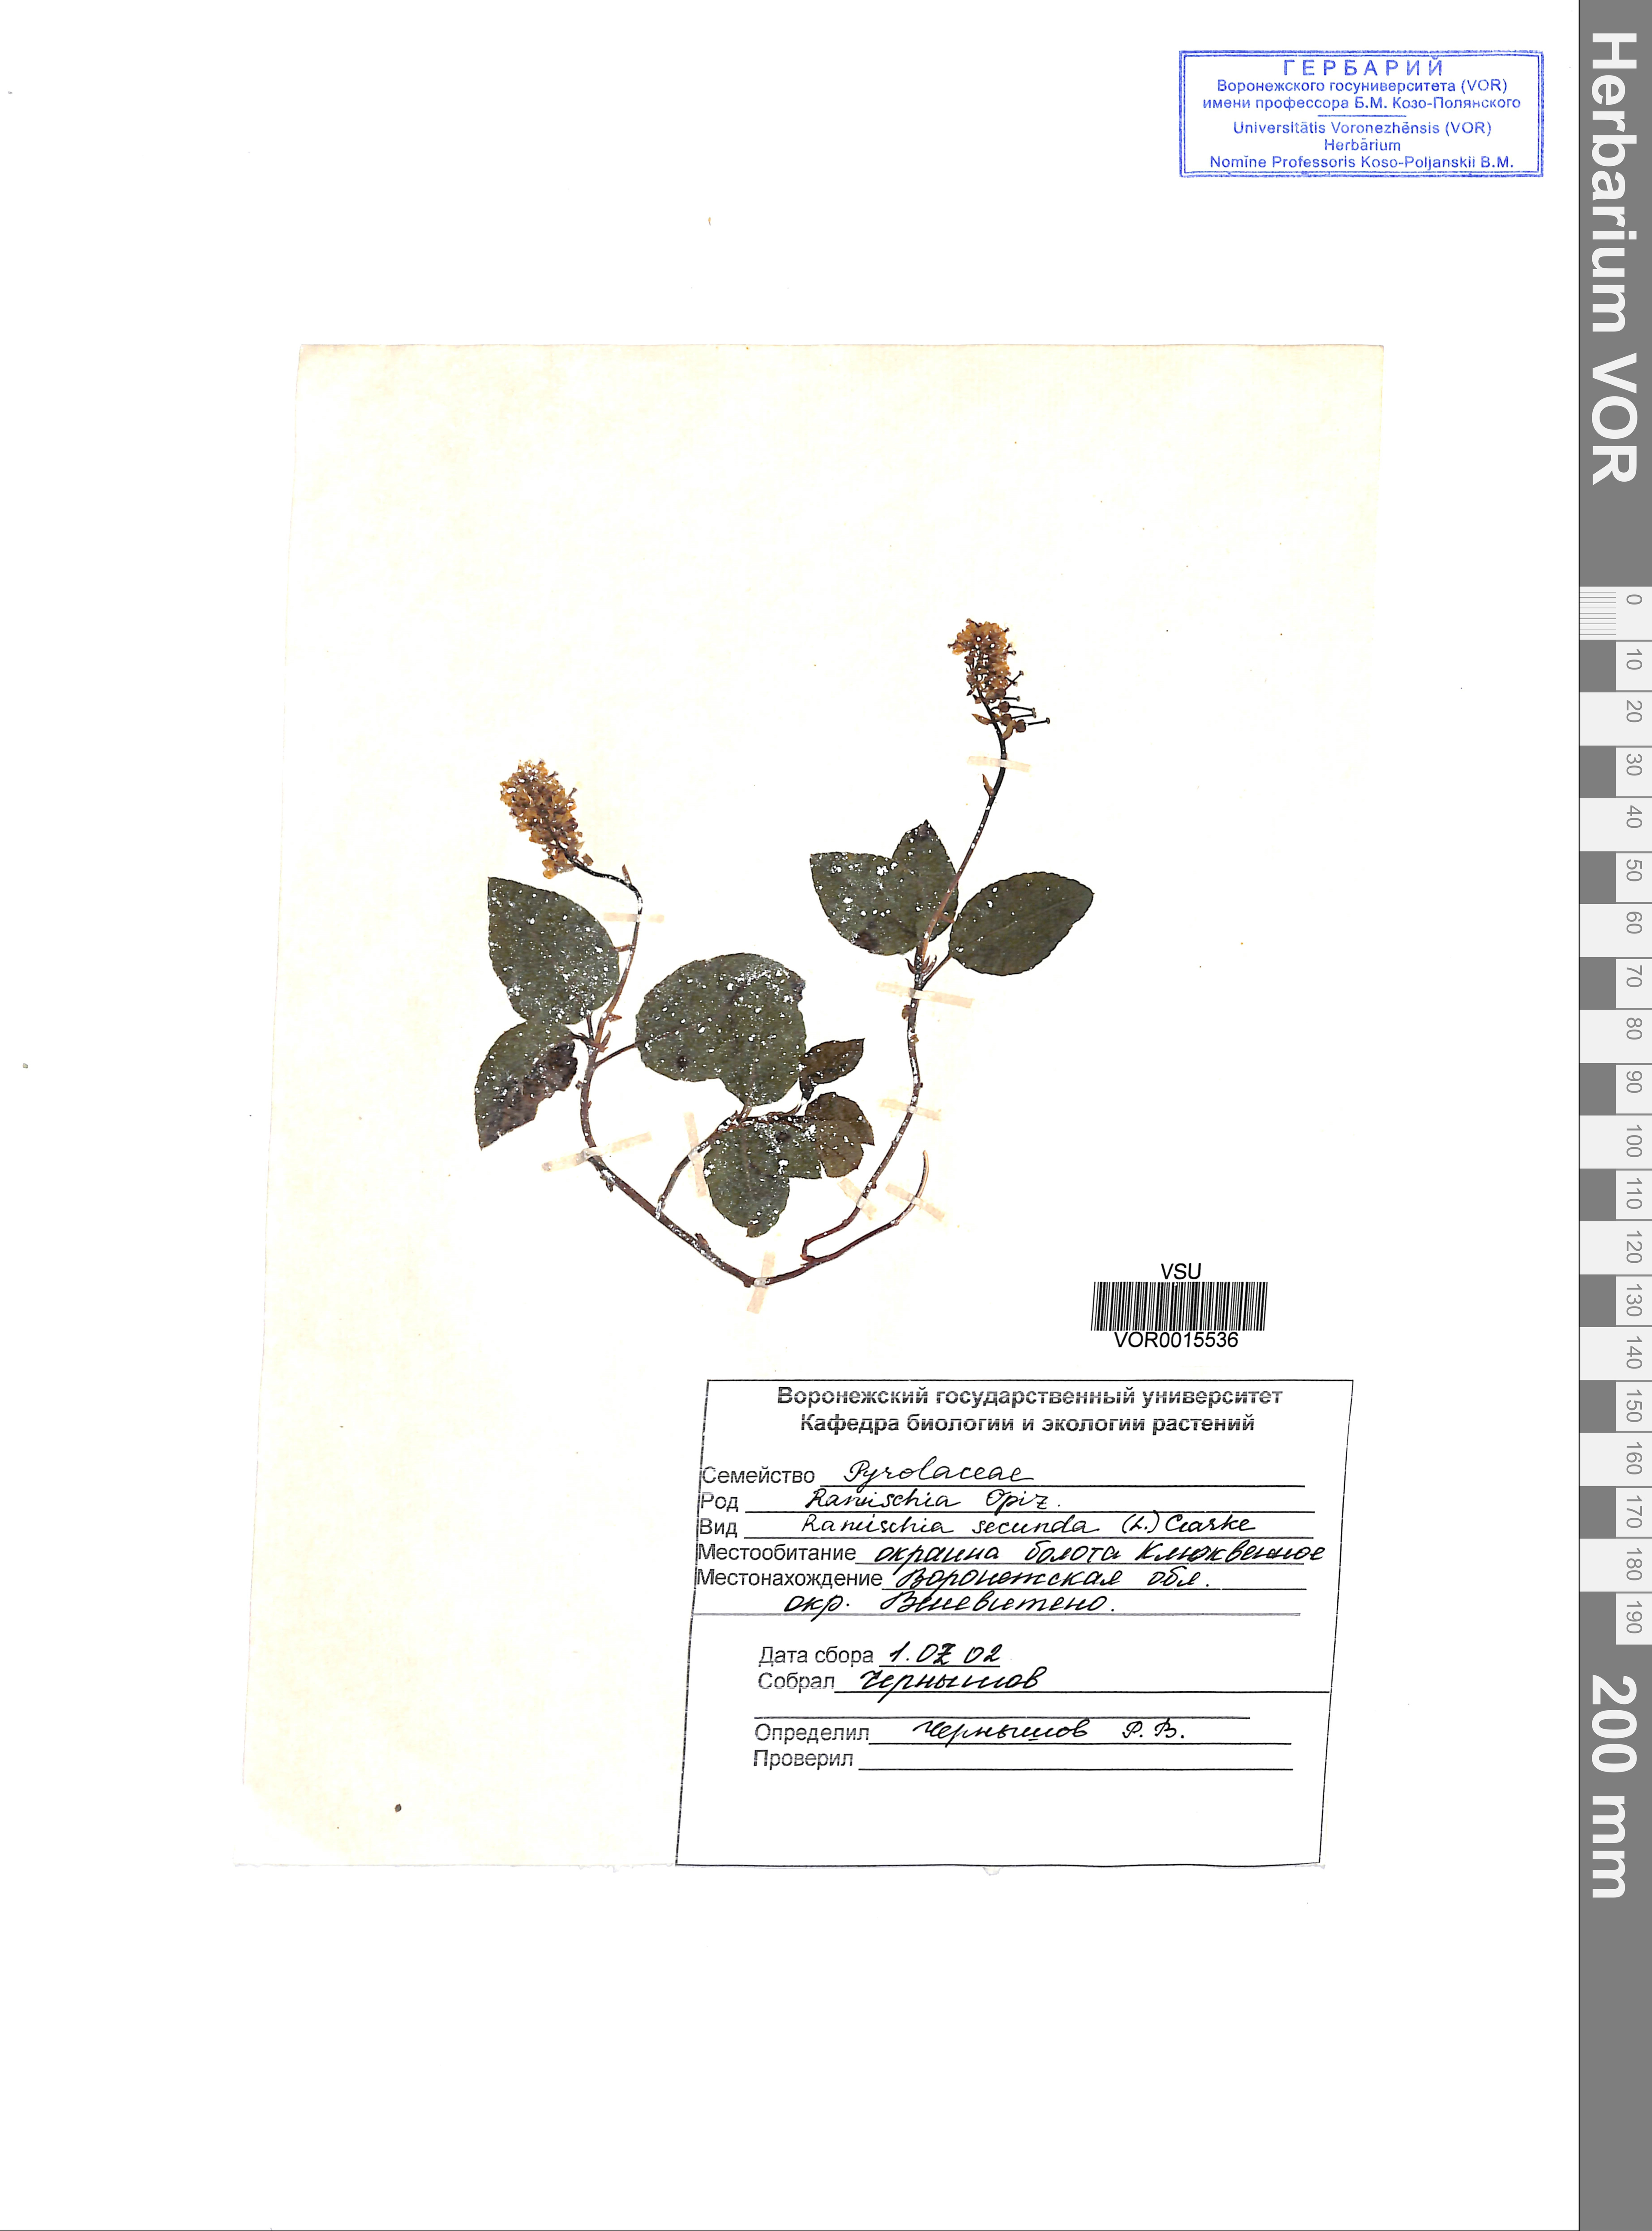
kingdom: Plantae
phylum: Tracheophyta
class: Magnoliopsida
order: Ericales
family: Ericaceae
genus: Orthilia
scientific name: Orthilia secunda
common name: One-sided orthilia
